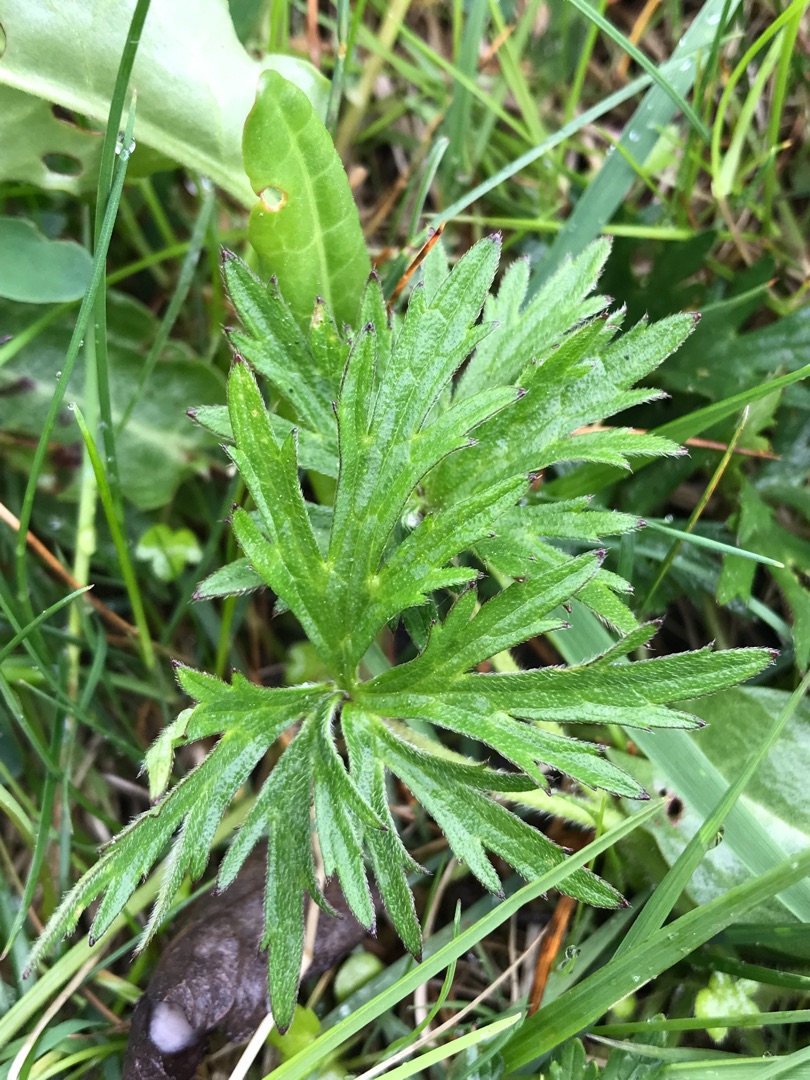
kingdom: Plantae
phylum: Tracheophyta
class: Magnoliopsida
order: Ranunculales
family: Ranunculaceae
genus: Ranunculus
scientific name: Ranunculus acris
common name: Bidende ranunkel
